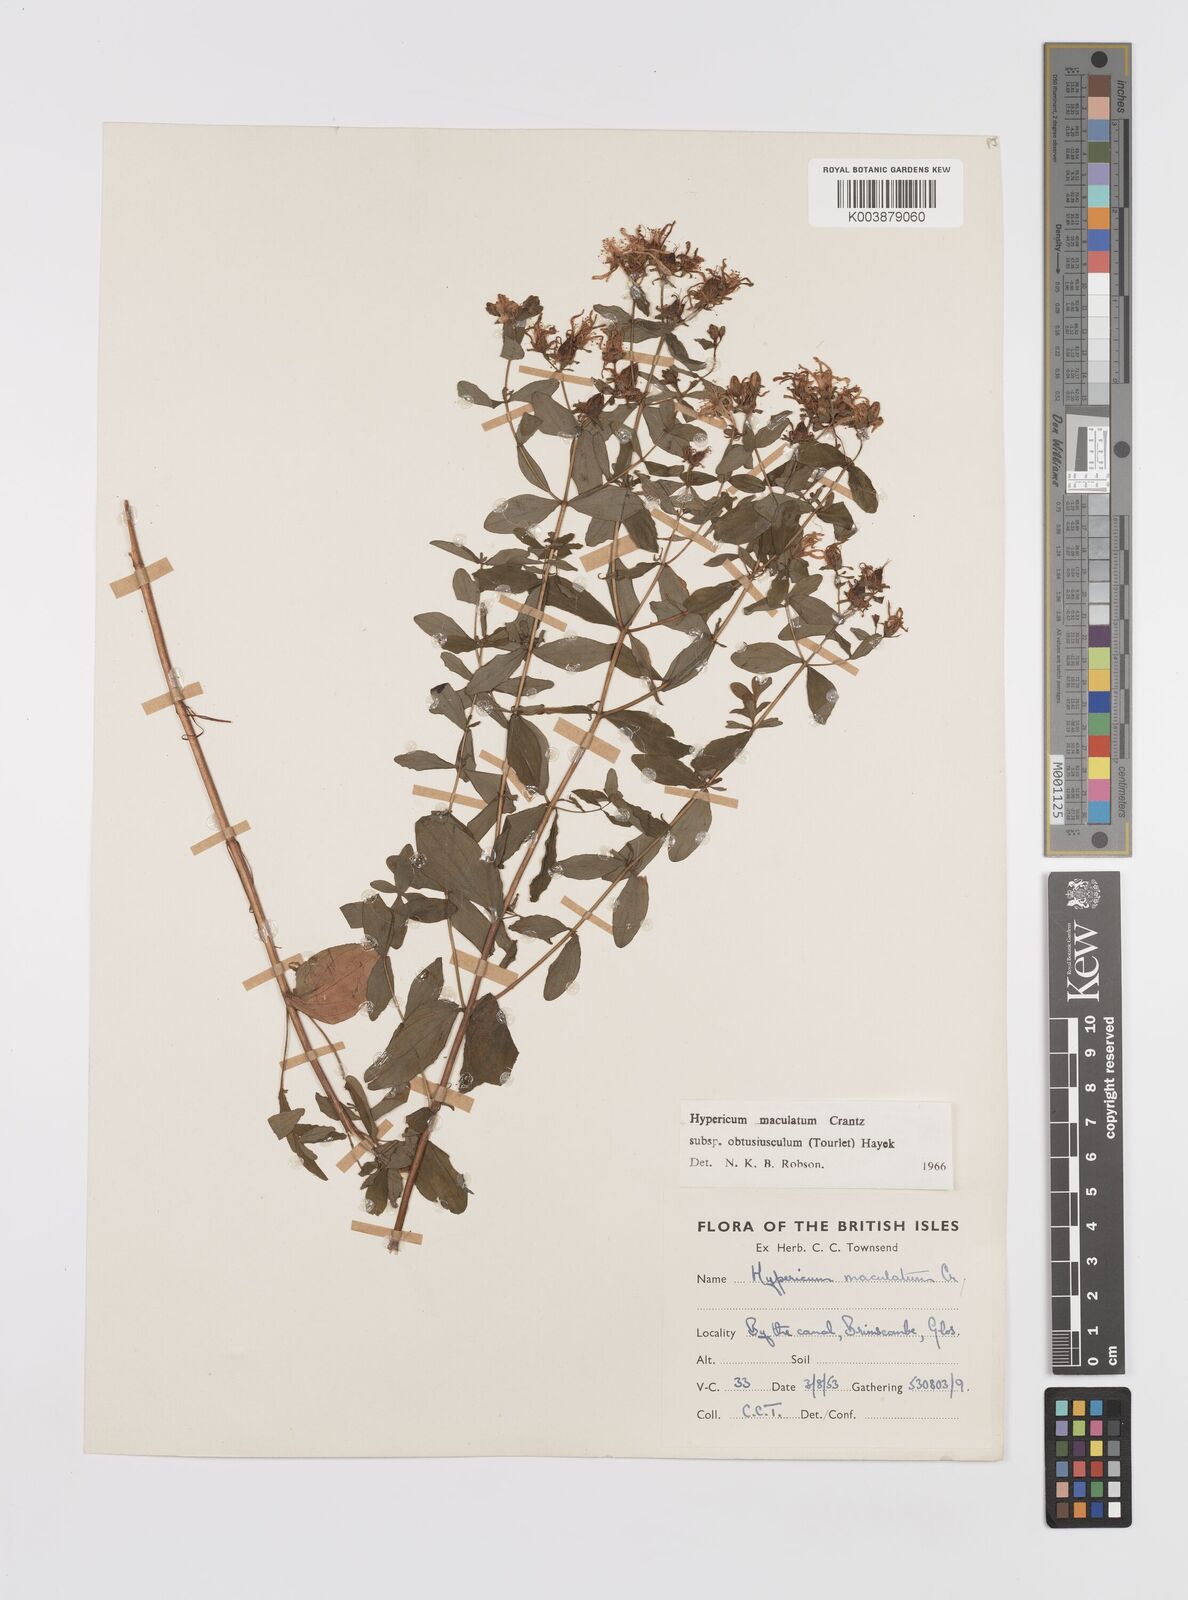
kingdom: Plantae
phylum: Tracheophyta
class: Magnoliopsida
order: Malpighiales
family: Hypericaceae
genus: Hypericum
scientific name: Hypericum dubium
